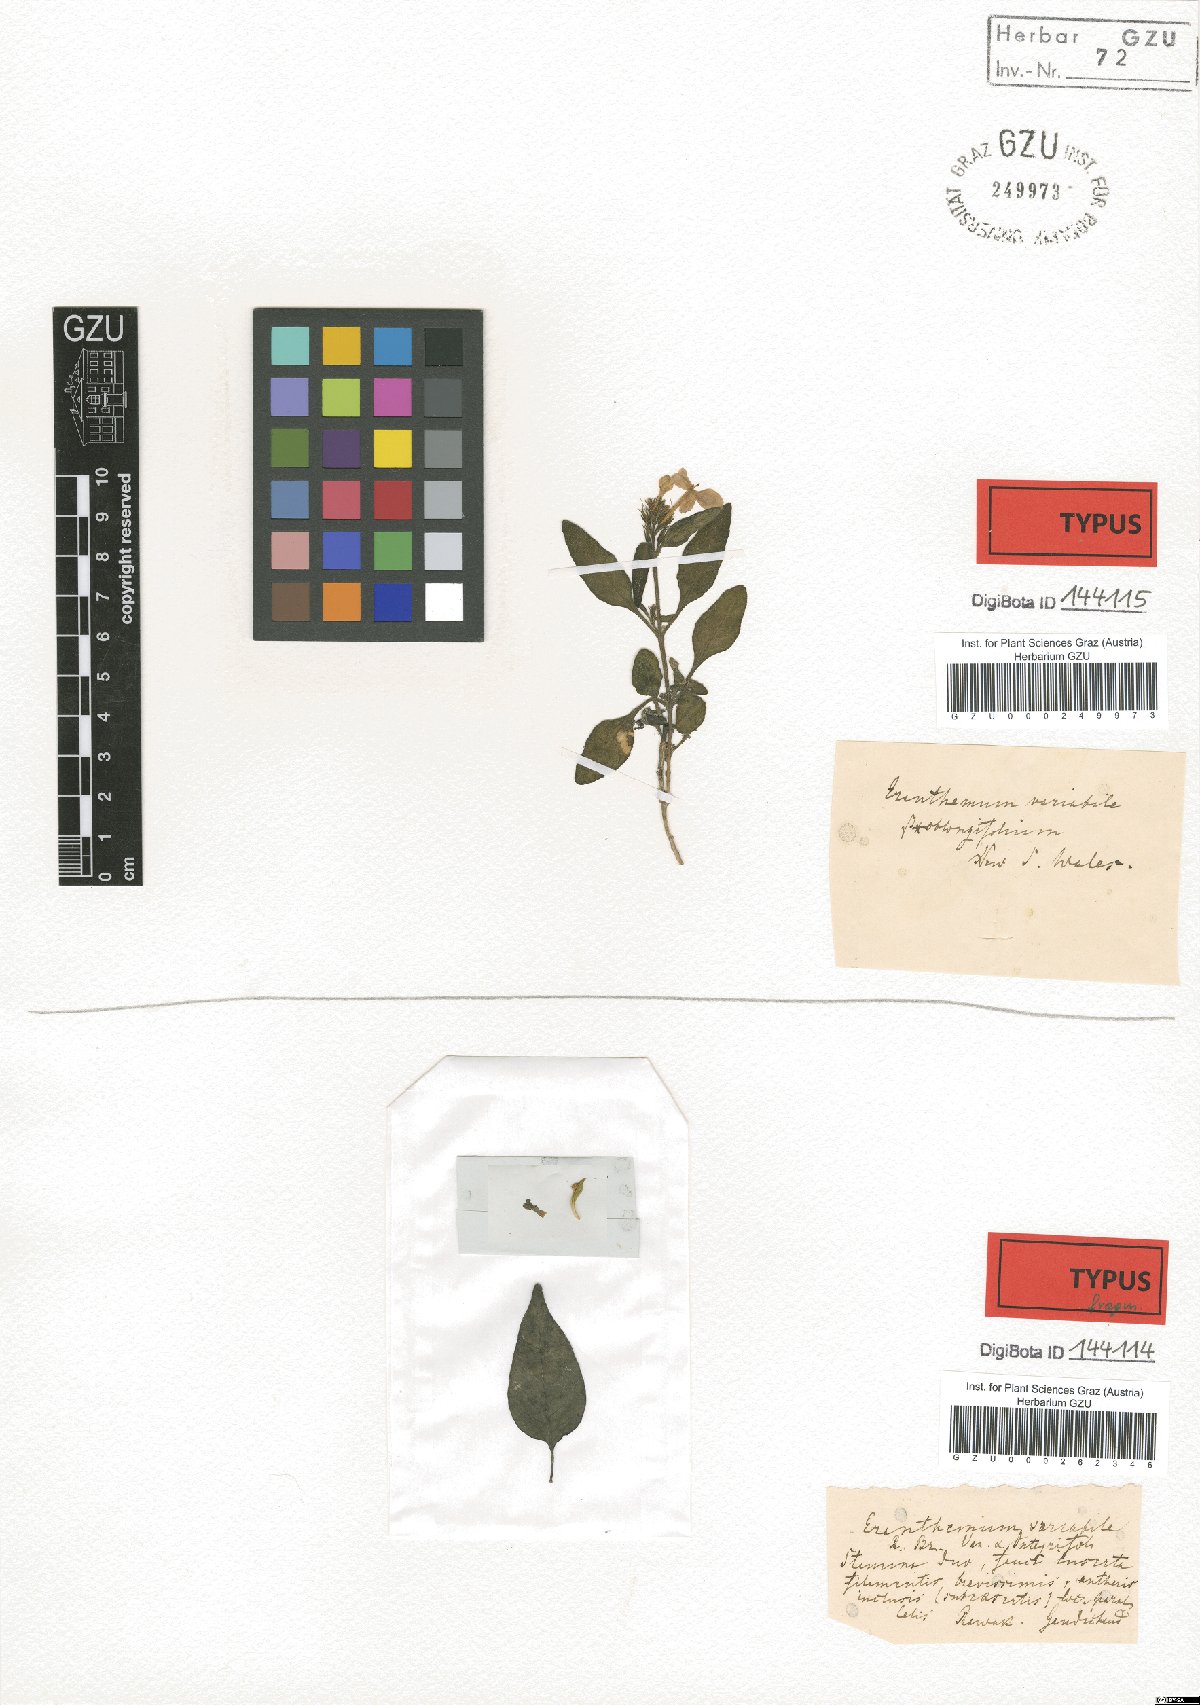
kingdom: Plantae
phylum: Tracheophyta
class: Magnoliopsida
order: Lamiales
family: Acanthaceae
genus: Pseuderanthemum
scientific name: Pseuderanthemum variabile
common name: Night and afternoon
